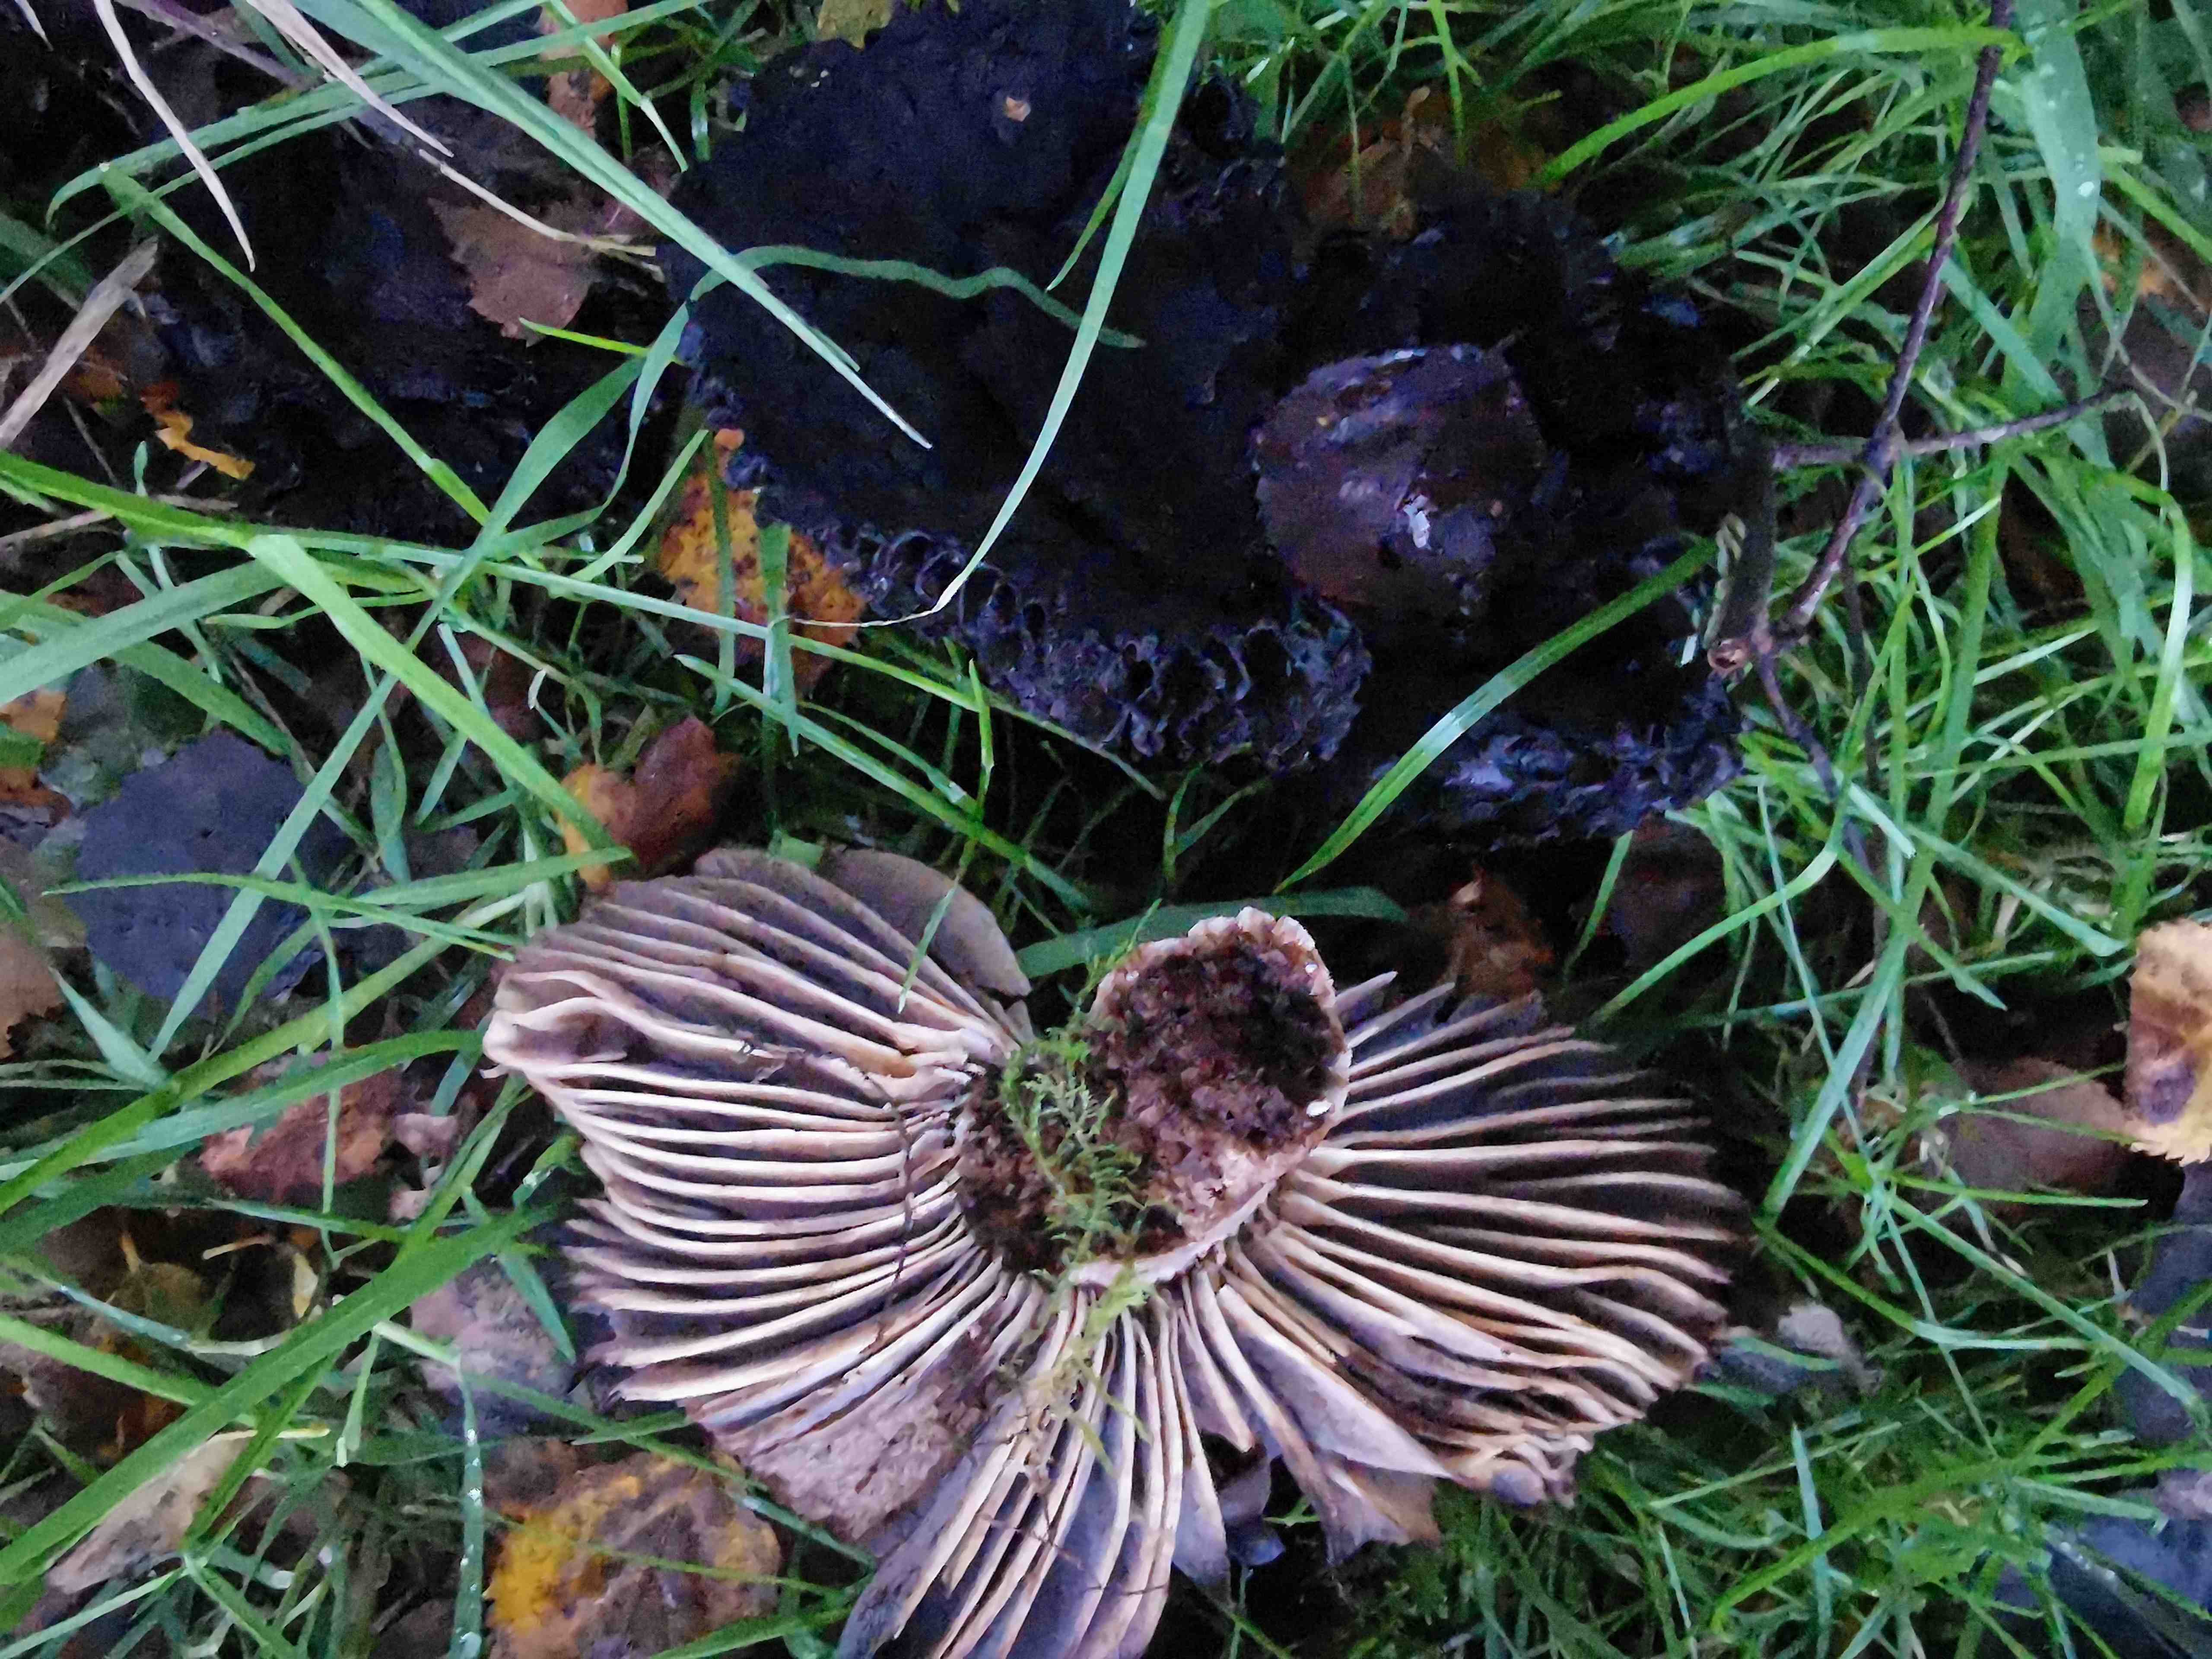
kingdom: Fungi
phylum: Basidiomycota
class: Agaricomycetes
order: Russulales
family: Russulaceae
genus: Russula
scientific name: Russula adusta
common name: sværtende skørhat
